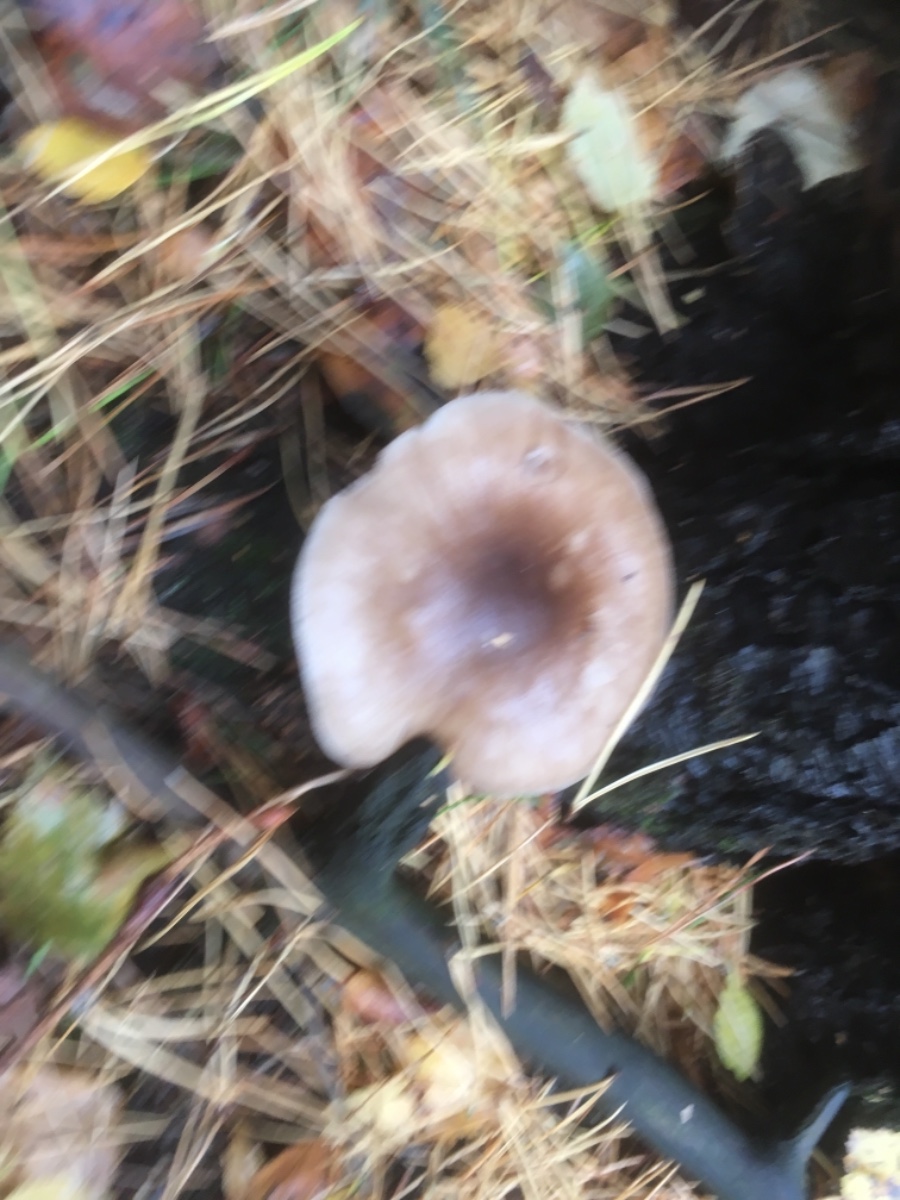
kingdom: Fungi
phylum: Basidiomycota
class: Agaricomycetes
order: Agaricales
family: Pluteaceae
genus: Pluteus
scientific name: Pluteus
